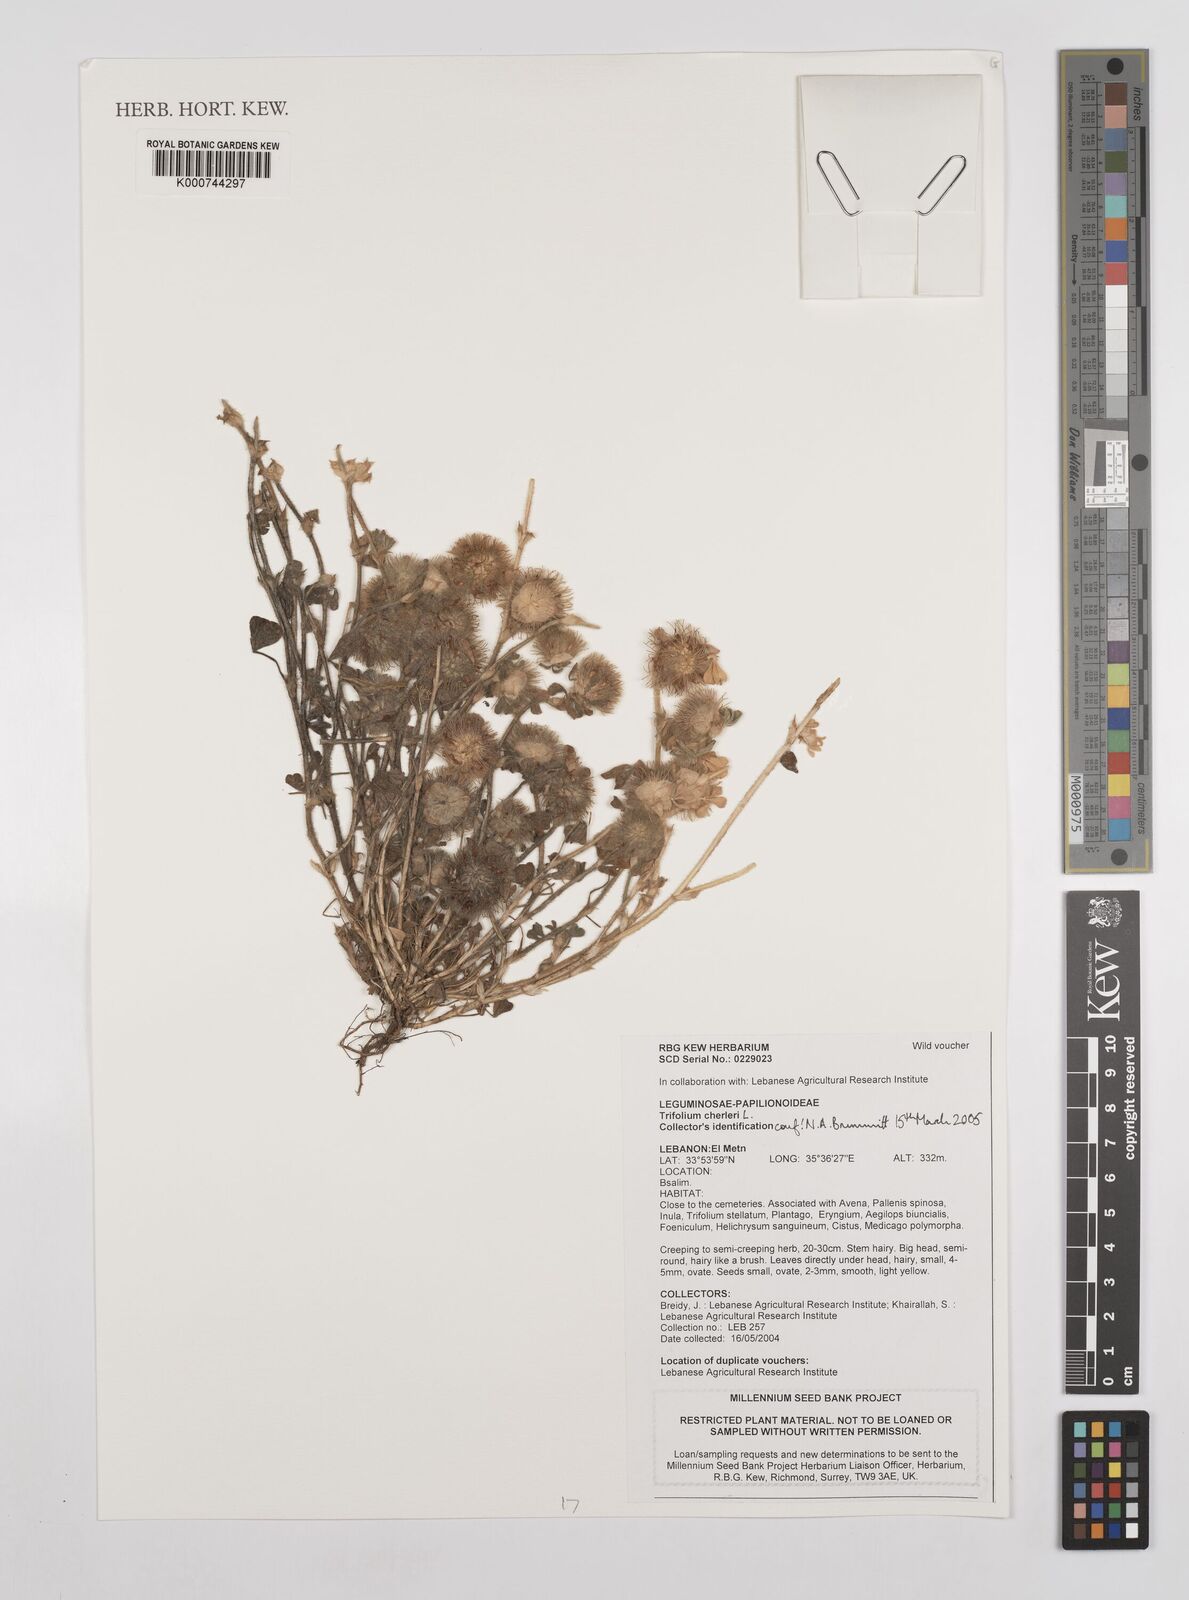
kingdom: Plantae
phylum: Tracheophyta
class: Magnoliopsida
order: Fabales
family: Fabaceae
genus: Trifolium
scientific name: Trifolium cherleri
